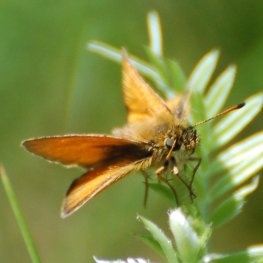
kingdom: Animalia
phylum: Arthropoda
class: Insecta
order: Lepidoptera
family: Hesperiidae
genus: Thymelicus
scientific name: Thymelicus lineola
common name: European Skipper
